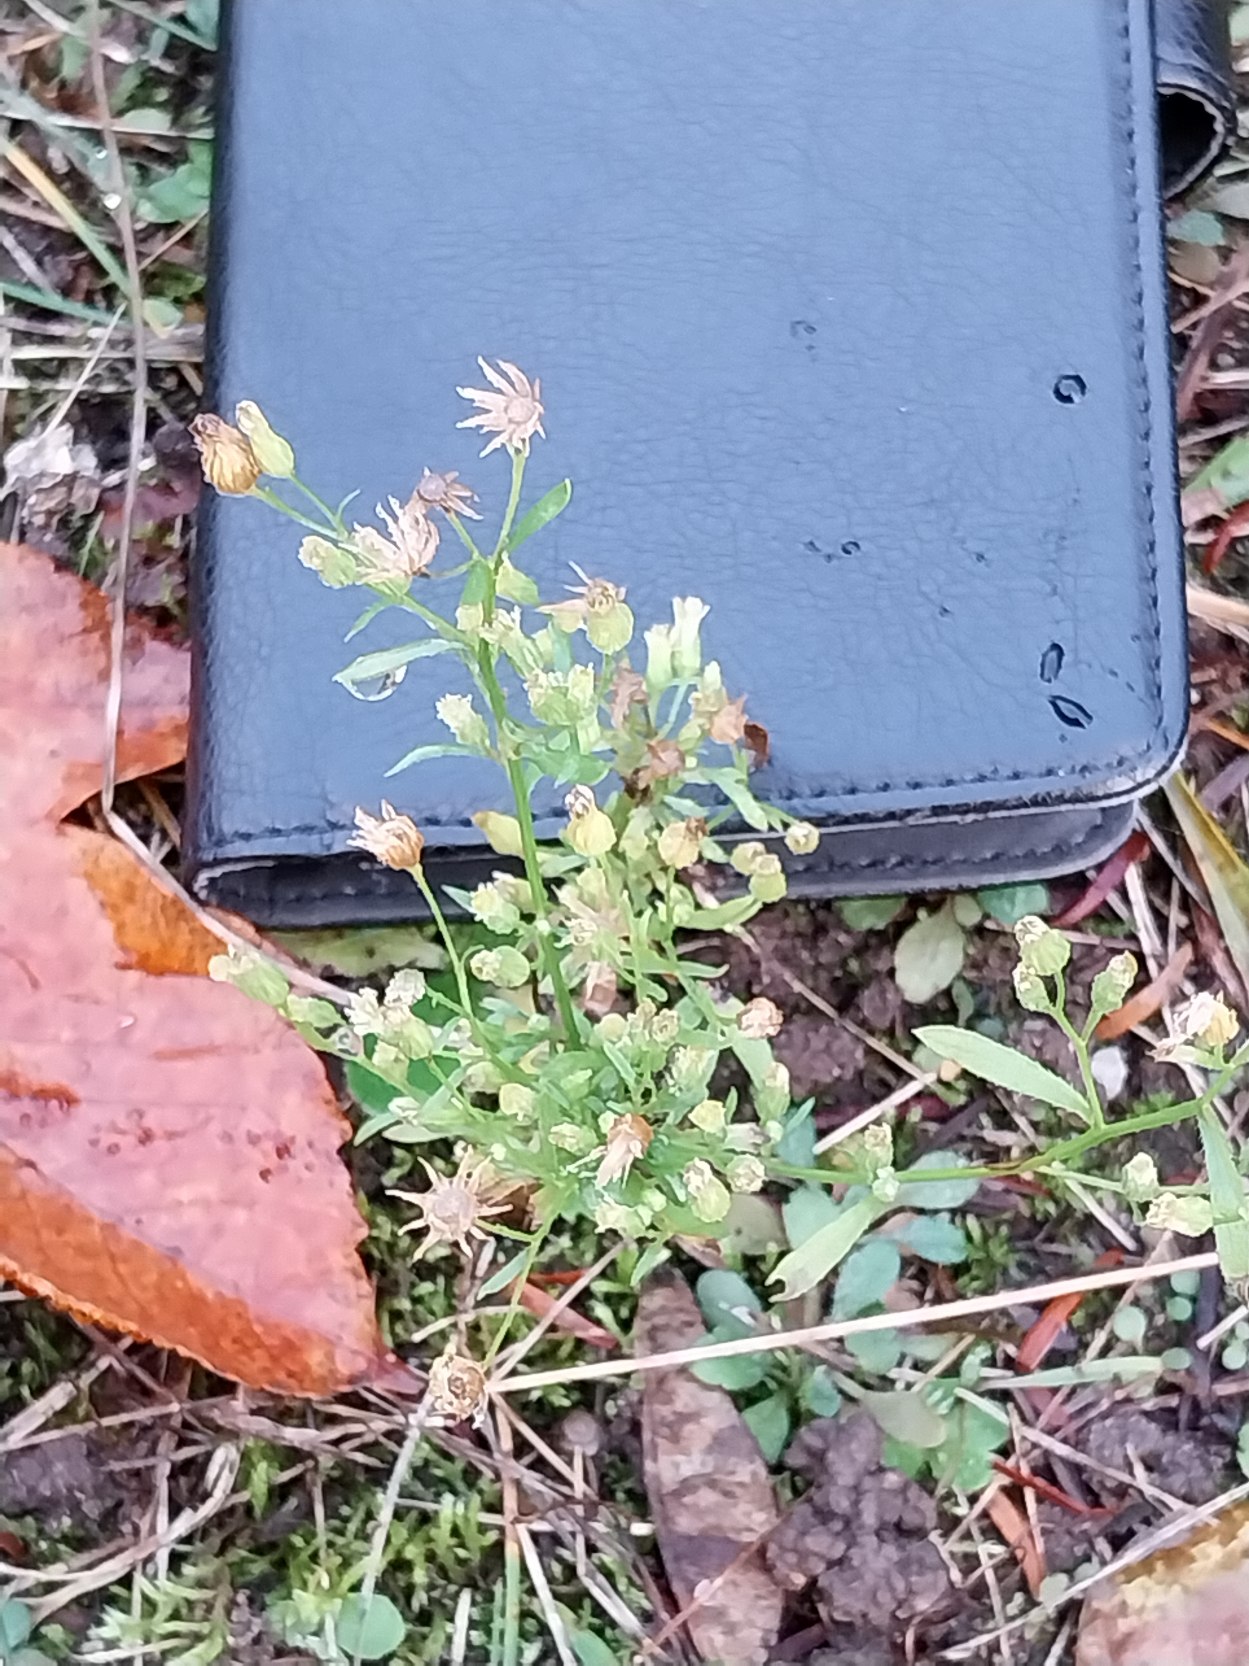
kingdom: Plantae
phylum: Tracheophyta
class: Magnoliopsida
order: Asterales
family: Asteraceae
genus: Erigeron
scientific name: Erigeron canadensis
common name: Kanadisk bakkestjerne
